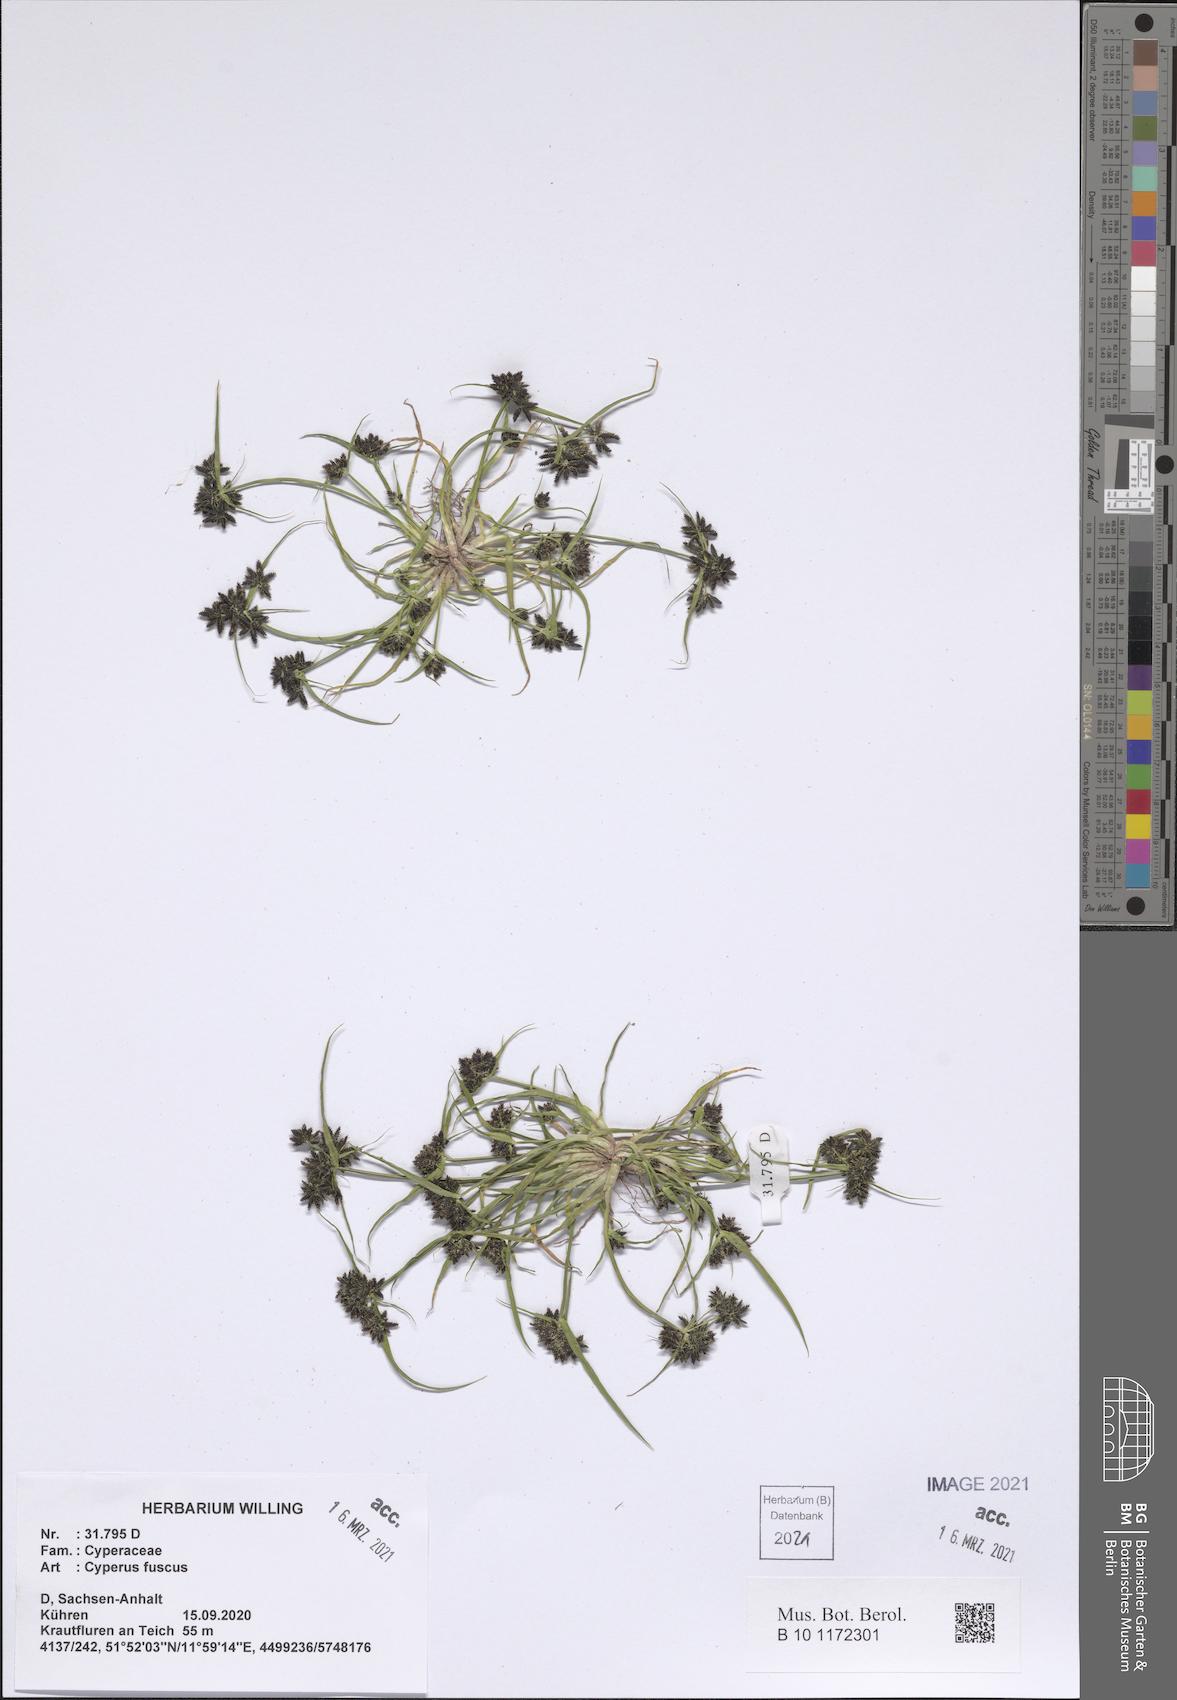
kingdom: Plantae
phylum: Tracheophyta
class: Liliopsida
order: Poales
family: Cyperaceae
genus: Cyperus
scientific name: Cyperus fuscus
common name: Brown galingale
